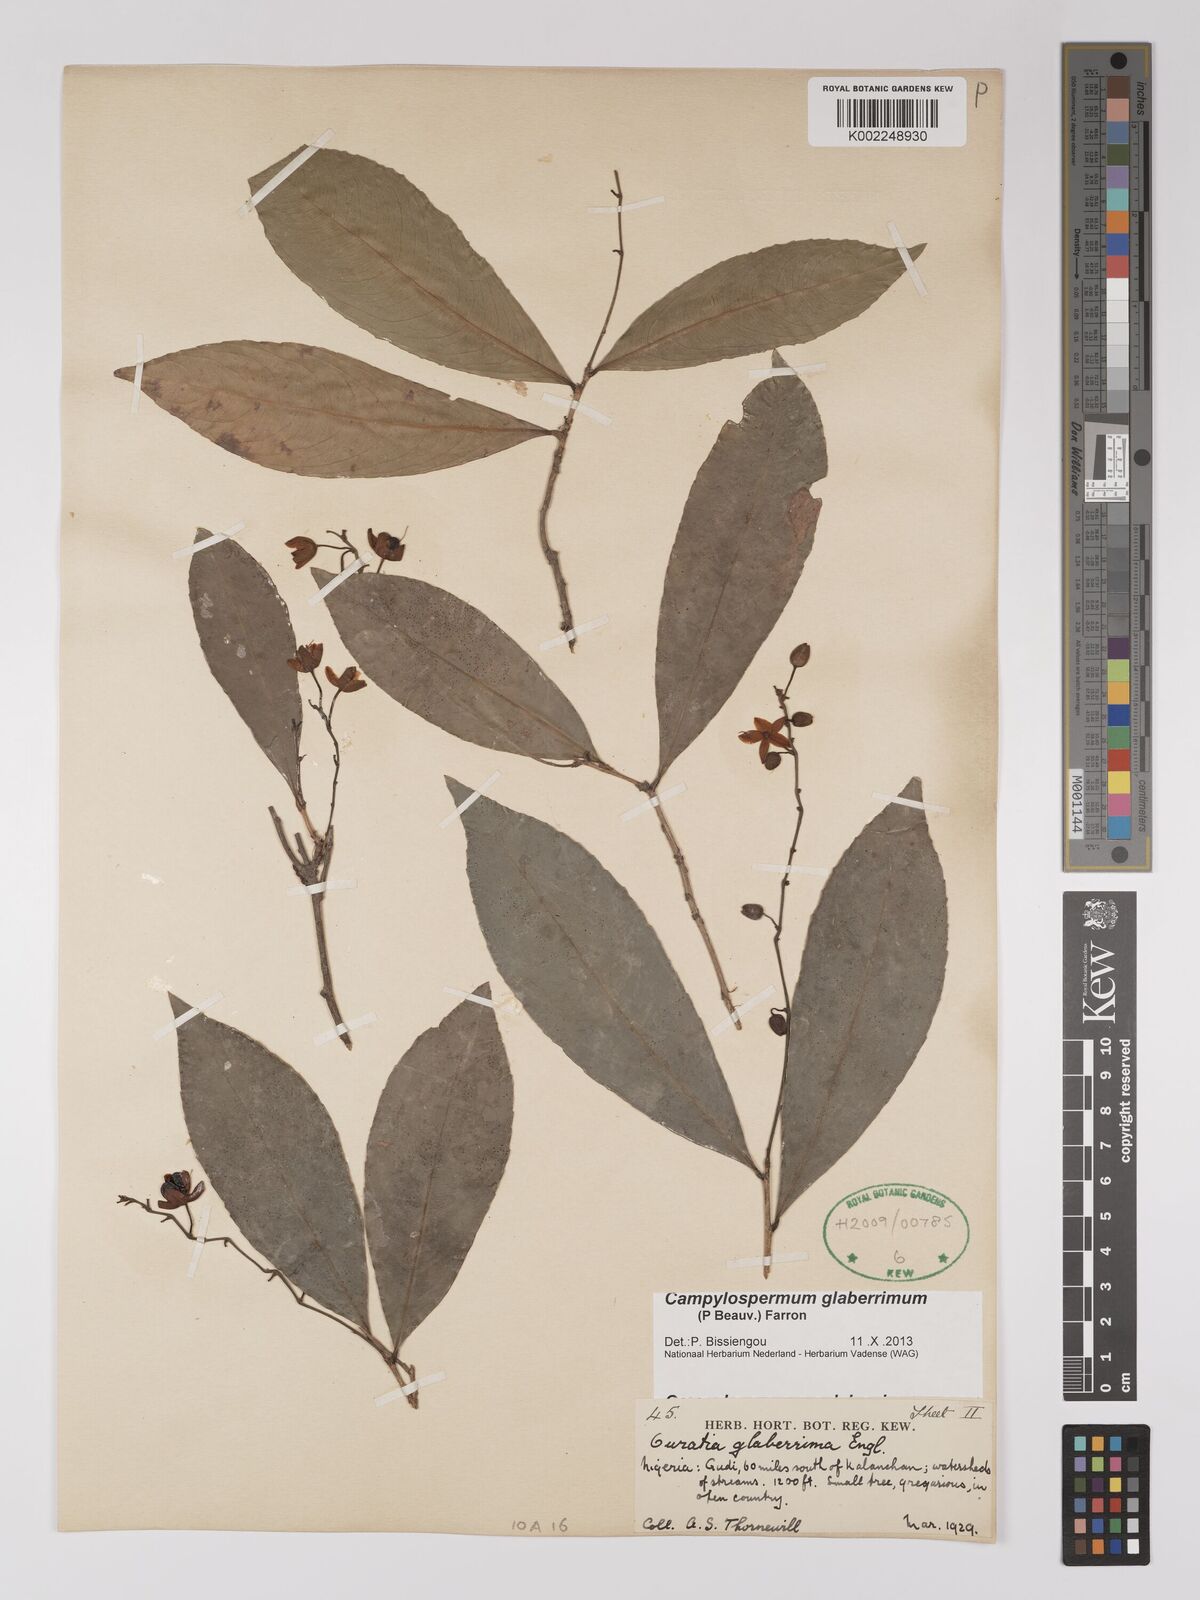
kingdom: Plantae
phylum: Tracheophyta
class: Magnoliopsida
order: Malpighiales
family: Ochnaceae
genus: Campylospermum
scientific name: Campylospermum glaberrimum
